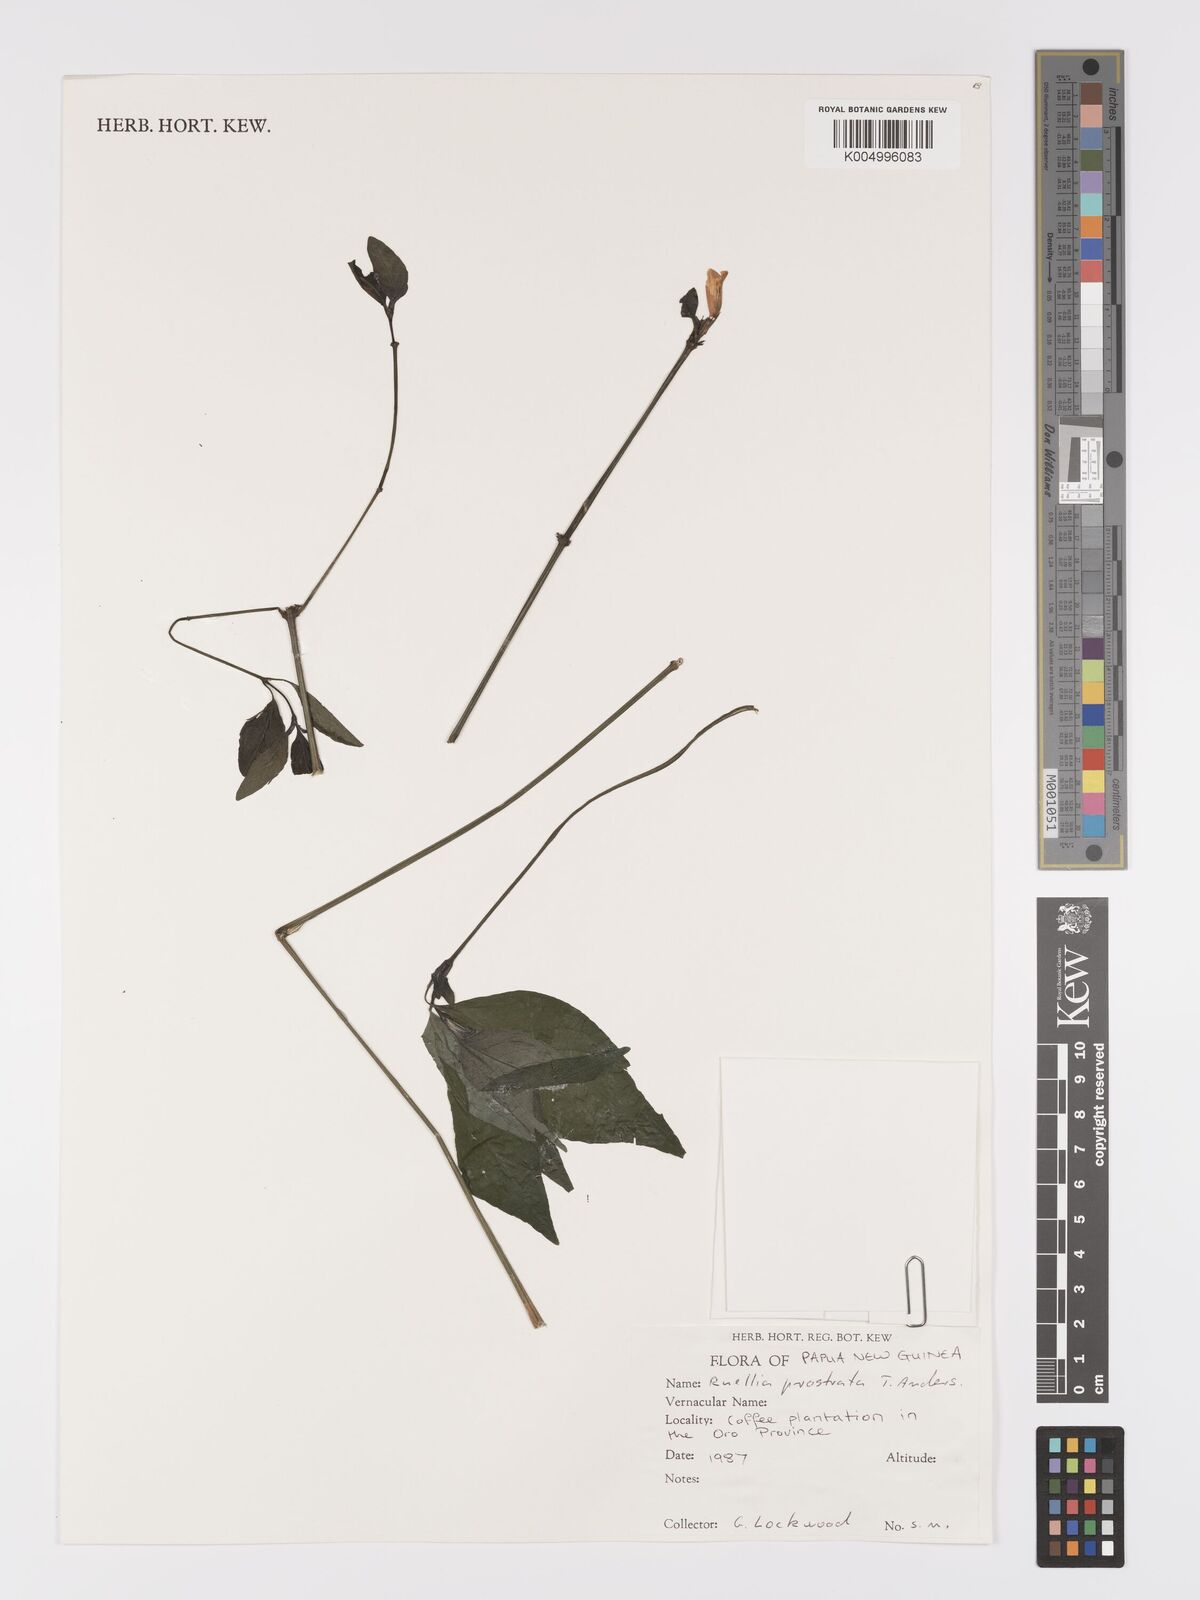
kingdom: Plantae
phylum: Tracheophyta
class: Magnoliopsida
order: Lamiales
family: Acanthaceae
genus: Ruellia
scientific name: Ruellia
